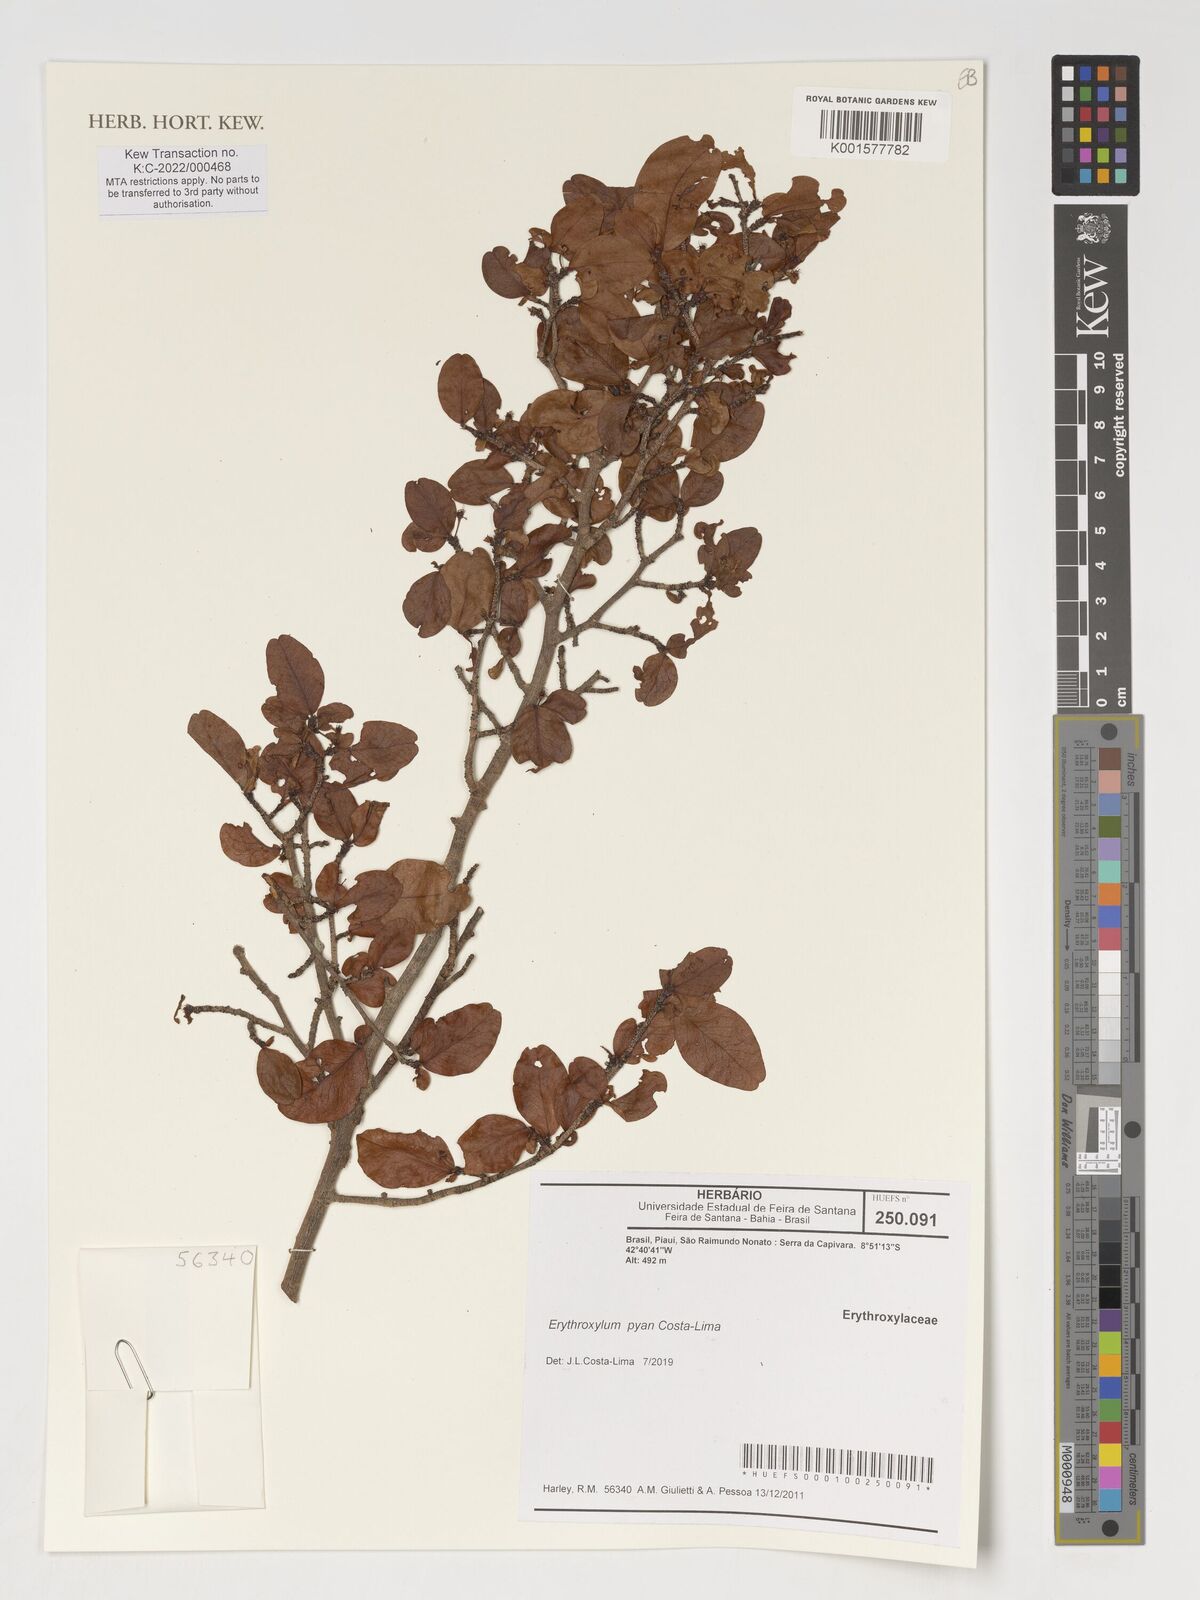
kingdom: Plantae
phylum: Tracheophyta
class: Magnoliopsida
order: Malpighiales
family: Erythroxylaceae
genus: Erythroxylum
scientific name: Erythroxylum pyan
